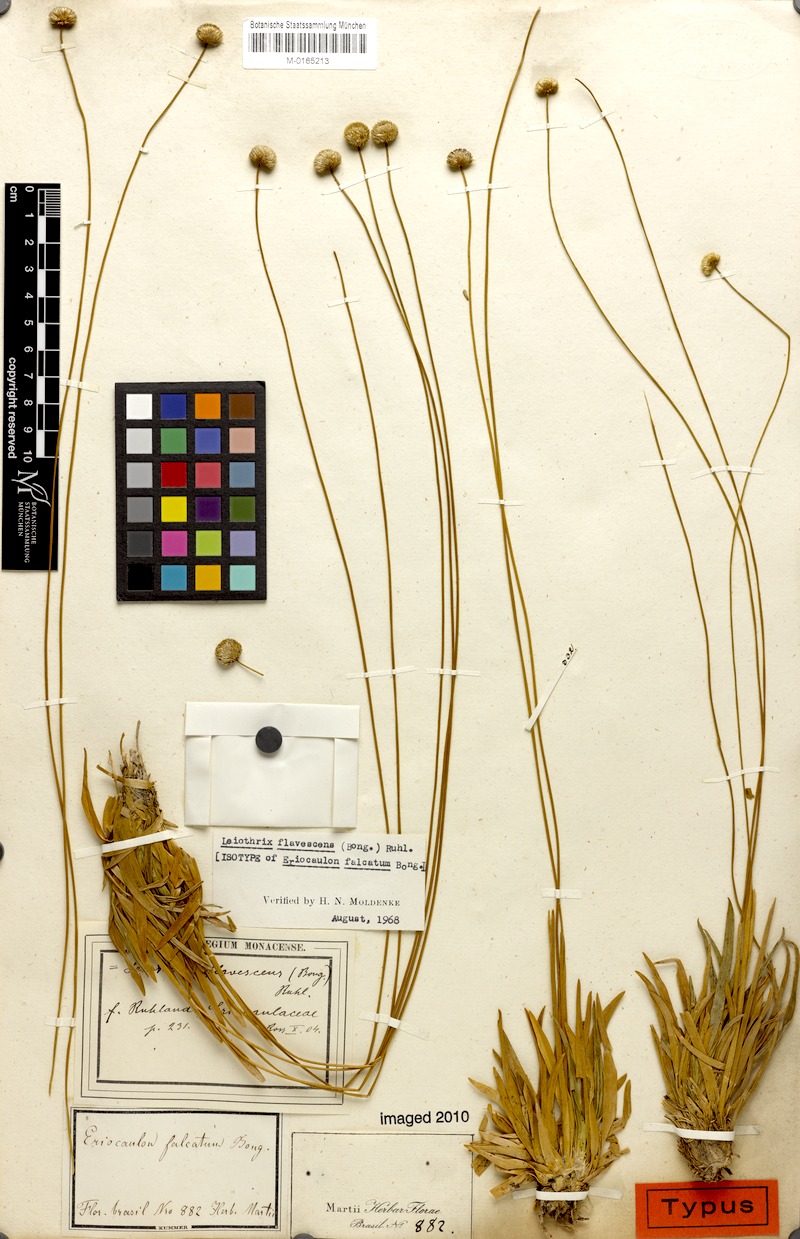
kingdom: Plantae
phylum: Tracheophyta
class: Liliopsida
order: Poales
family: Eriocaulaceae
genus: Leiothrix
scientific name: Leiothrix flavescens
